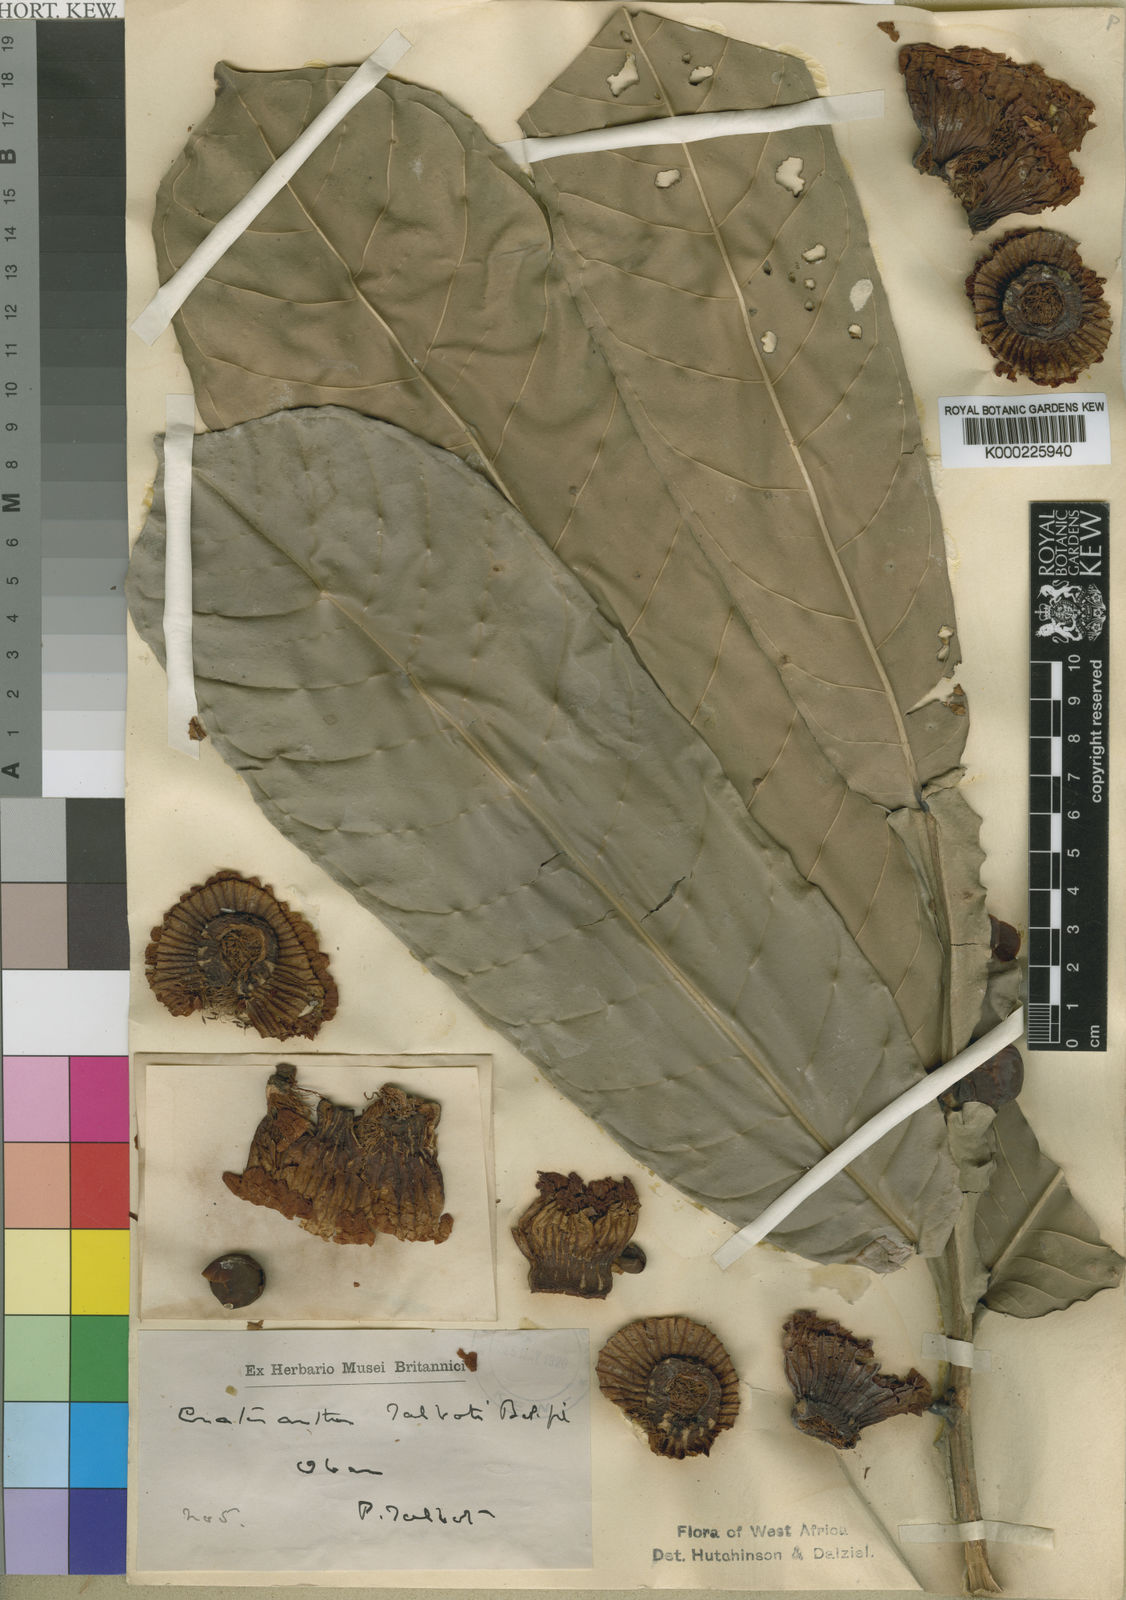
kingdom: Plantae
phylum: Tracheophyta
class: Magnoliopsida
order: Ericales
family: Lecythidaceae
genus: Crateranthus
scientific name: Crateranthus talbotii
